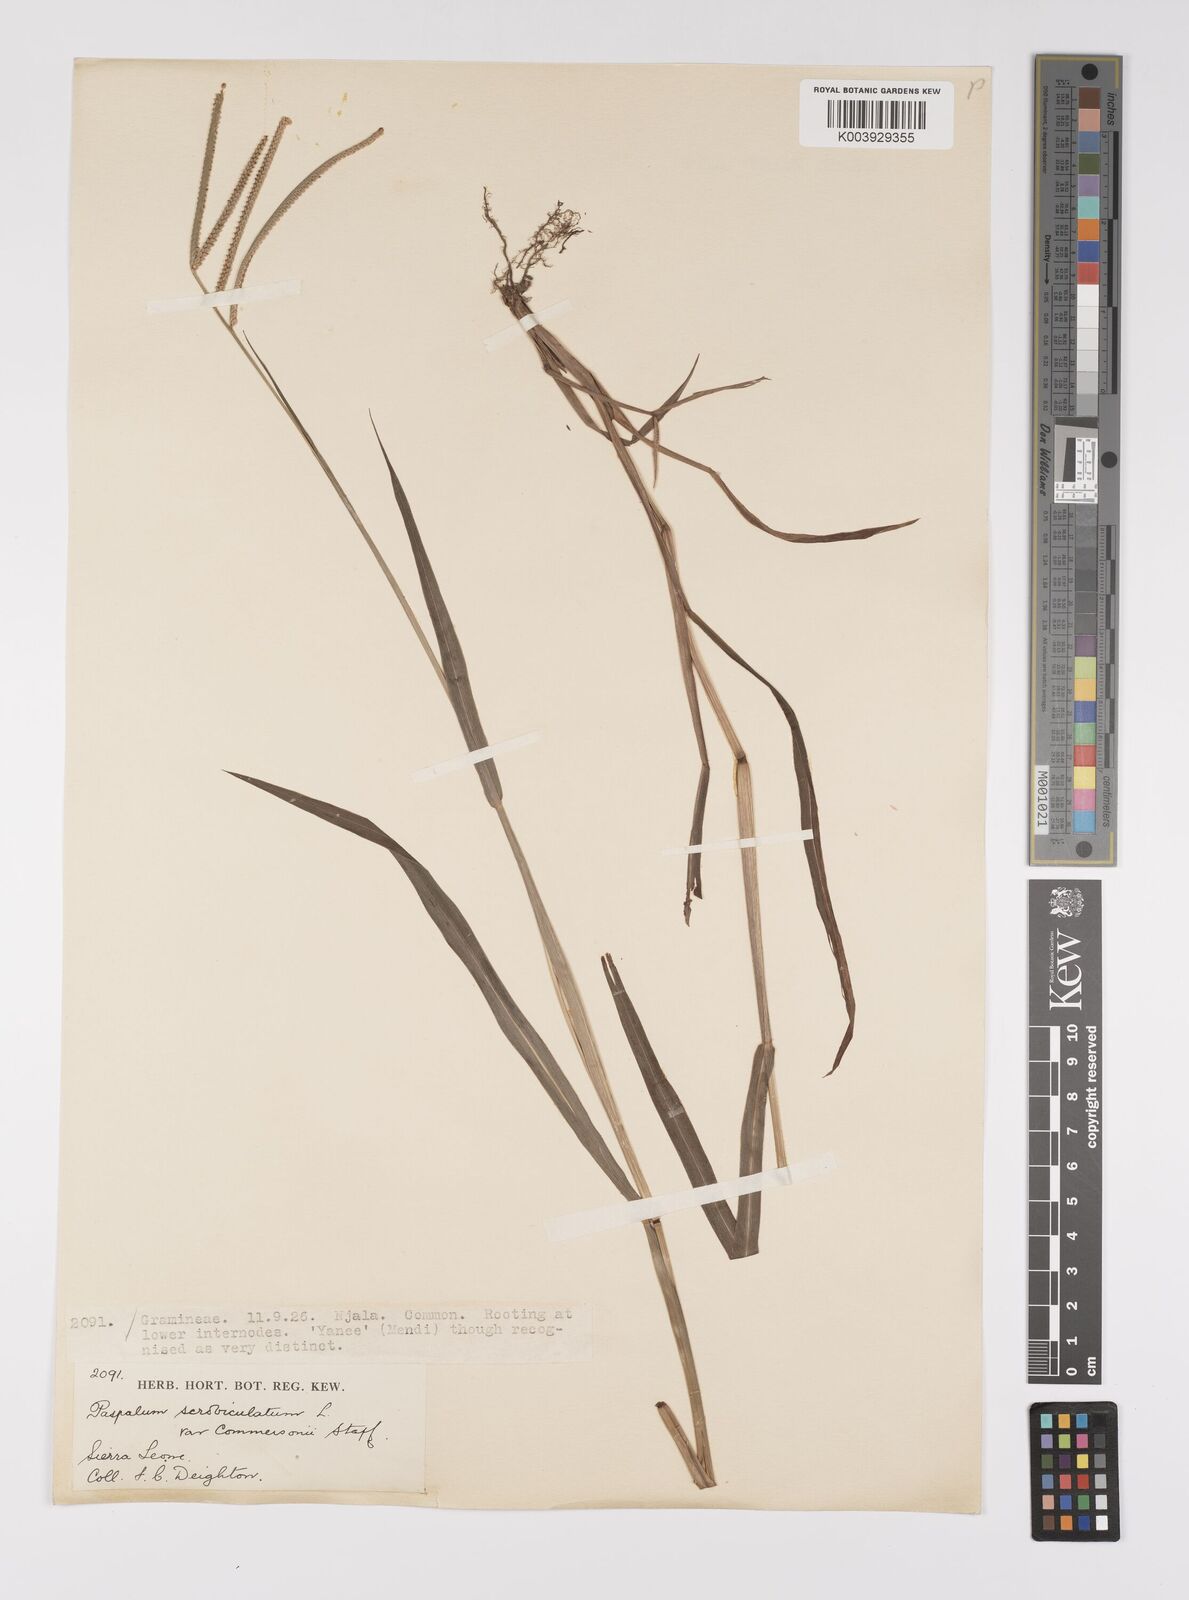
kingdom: Plantae
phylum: Tracheophyta
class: Liliopsida
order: Poales
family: Poaceae
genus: Paspalum
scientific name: Paspalum scrobiculatum
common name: Kodo millet
